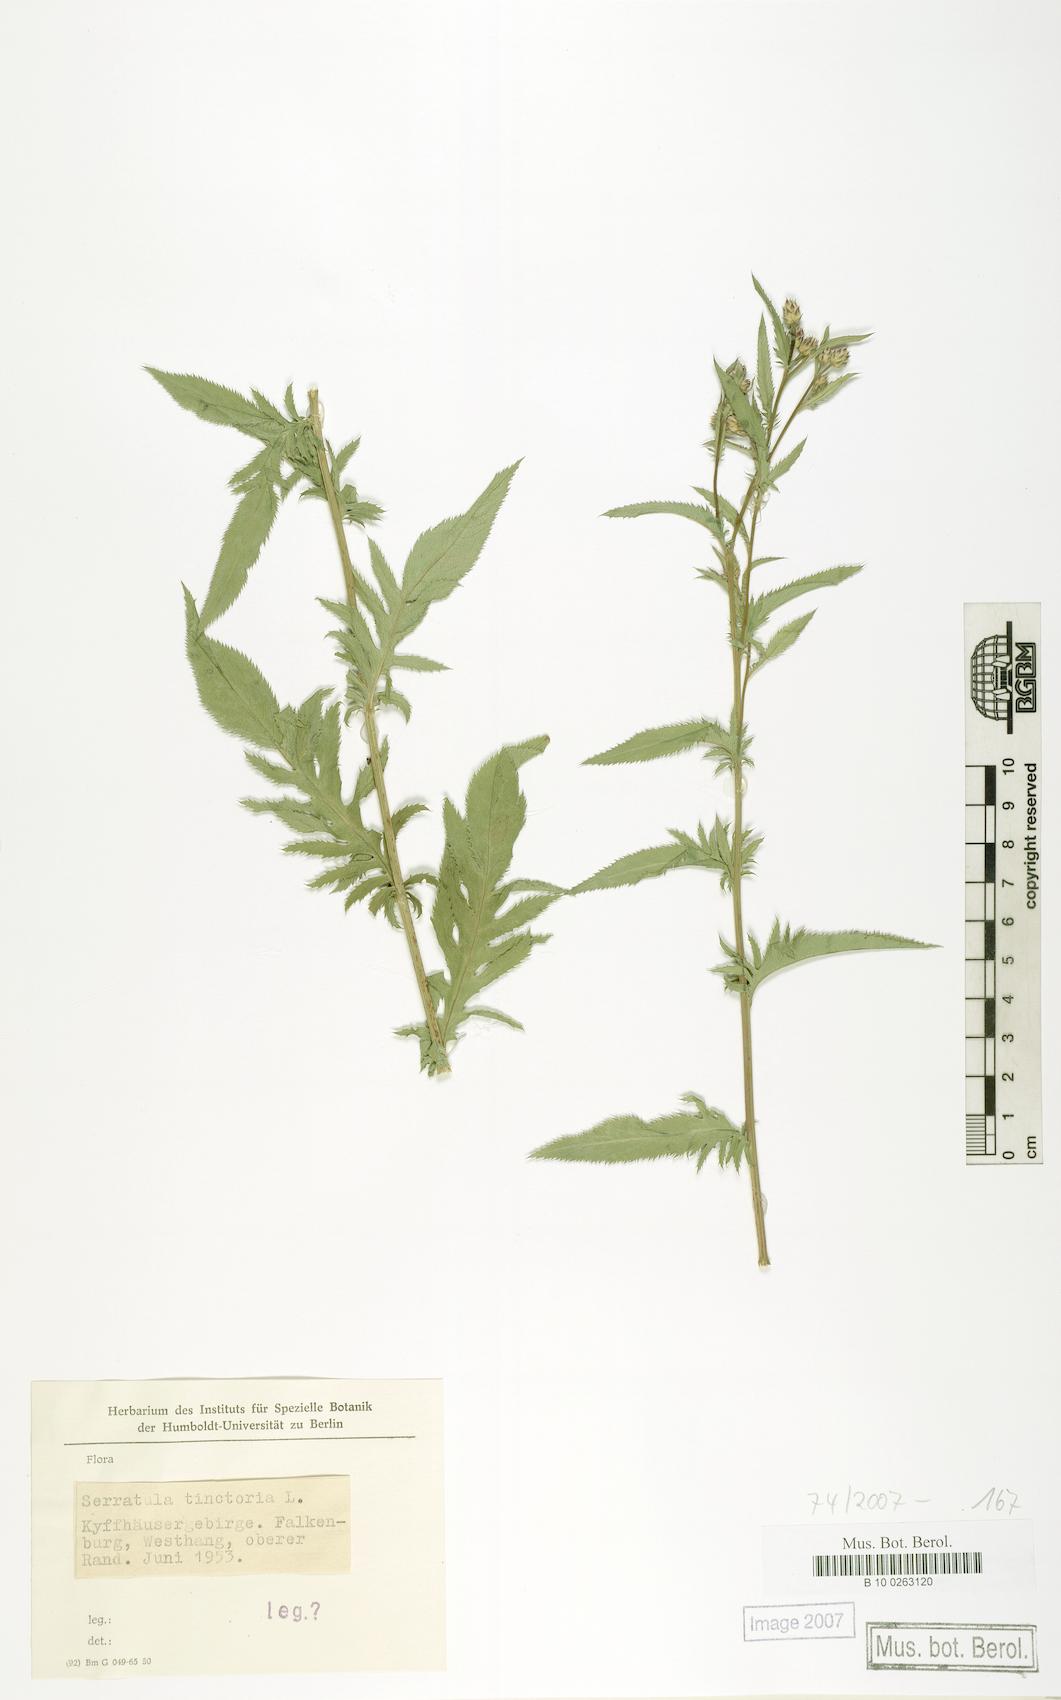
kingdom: Plantae
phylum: Tracheophyta
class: Magnoliopsida
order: Asterales
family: Asteraceae
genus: Serratula
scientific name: Serratula tinctoria
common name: Saw-wort
